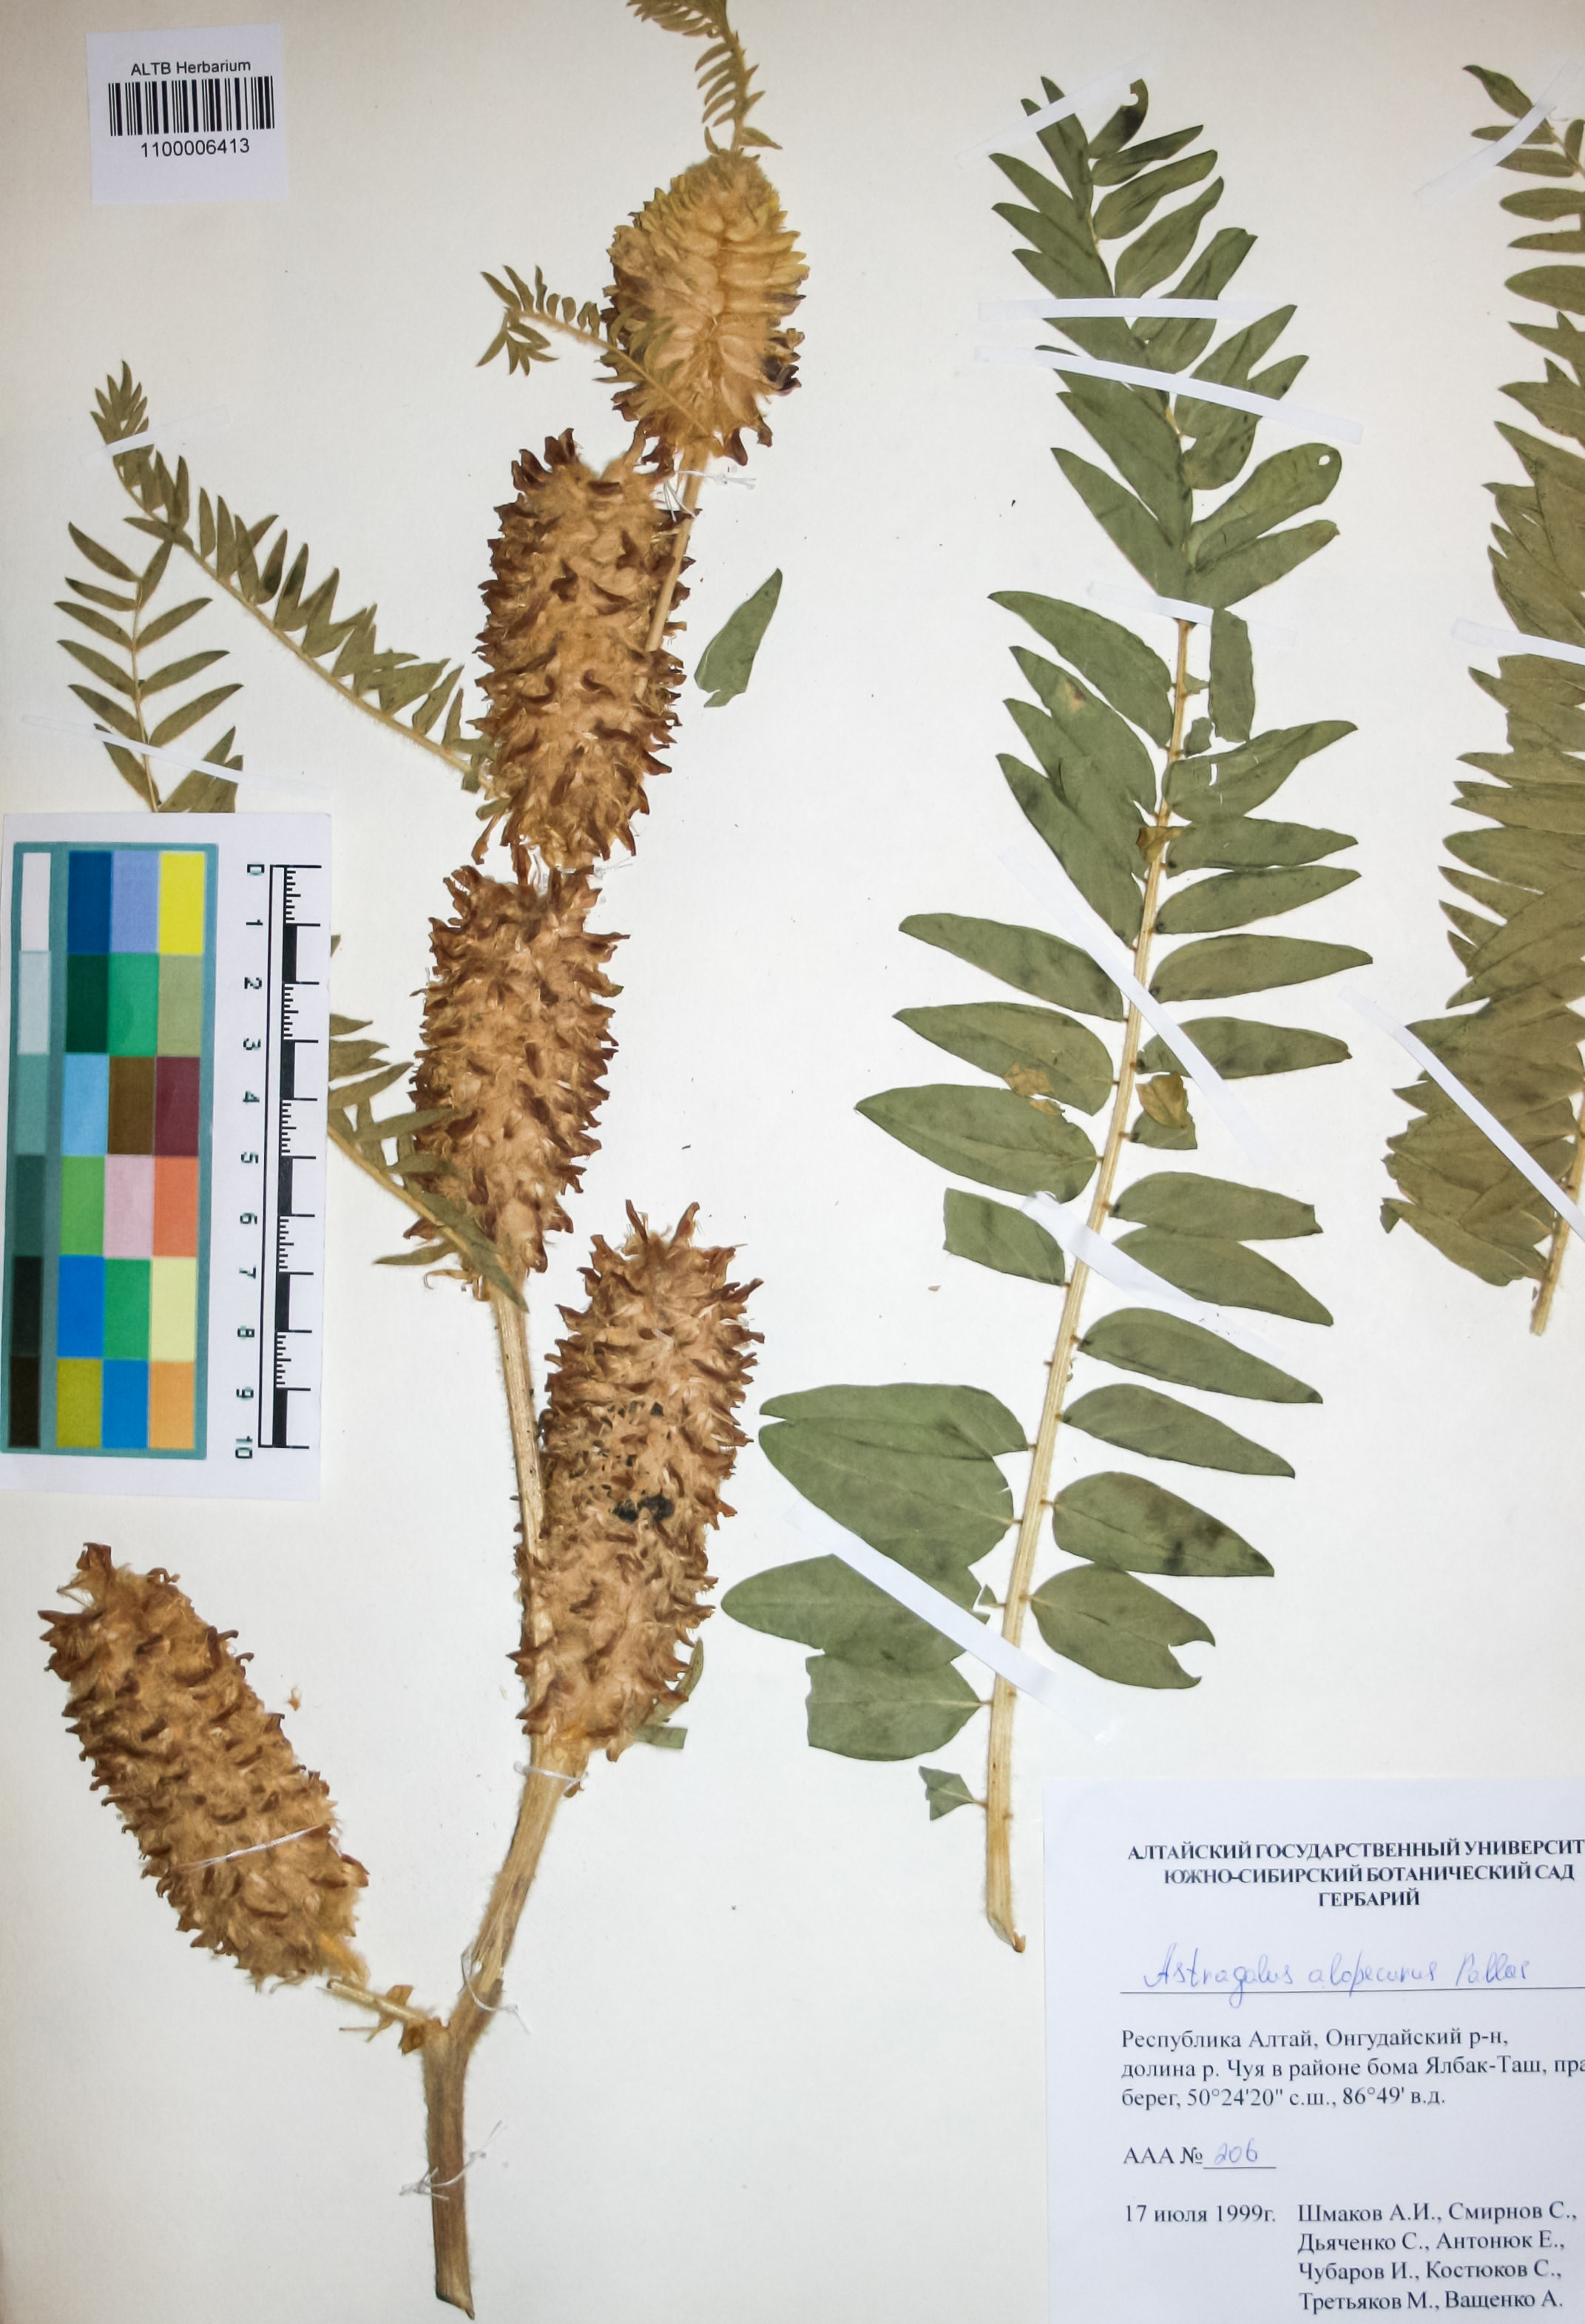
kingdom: Plantae
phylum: Tracheophyta
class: Magnoliopsida
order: Fabales
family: Fabaceae
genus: Astragalus
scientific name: Astragalus alopecurus
